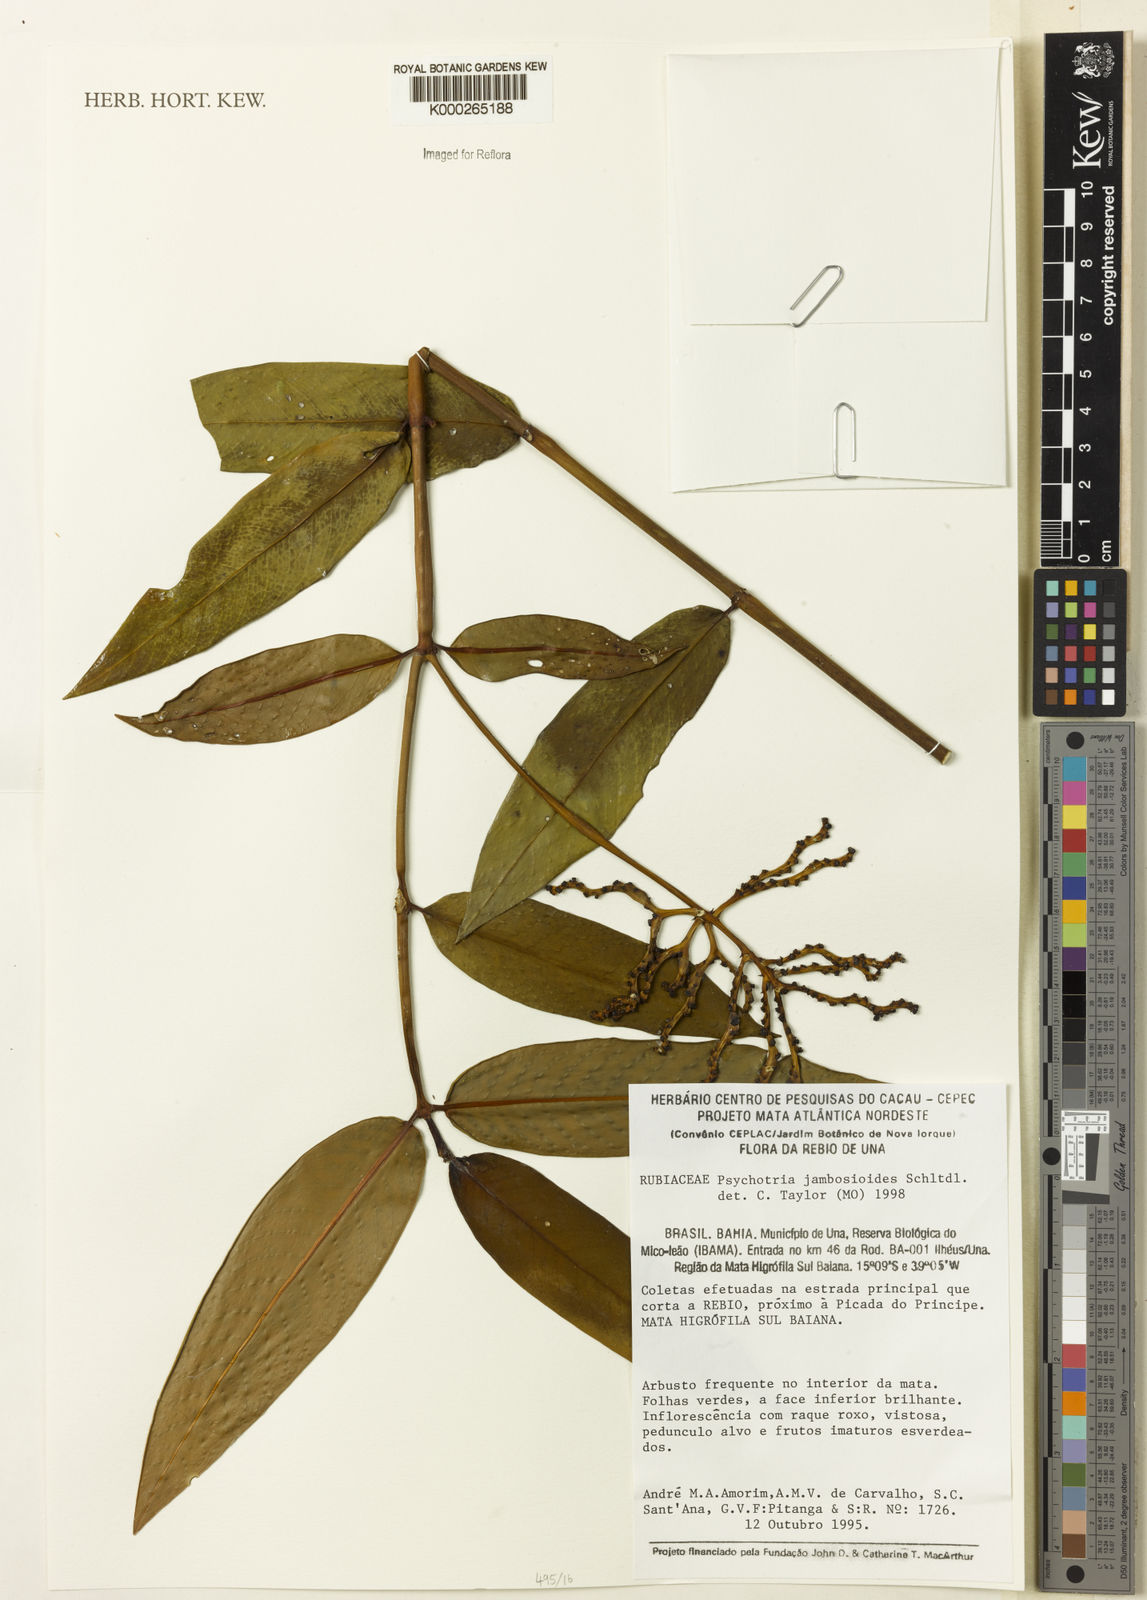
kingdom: Plantae
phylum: Tracheophyta
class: Magnoliopsida
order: Gentianales
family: Rubiaceae
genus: Palicourea
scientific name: Palicourea jambosioides
